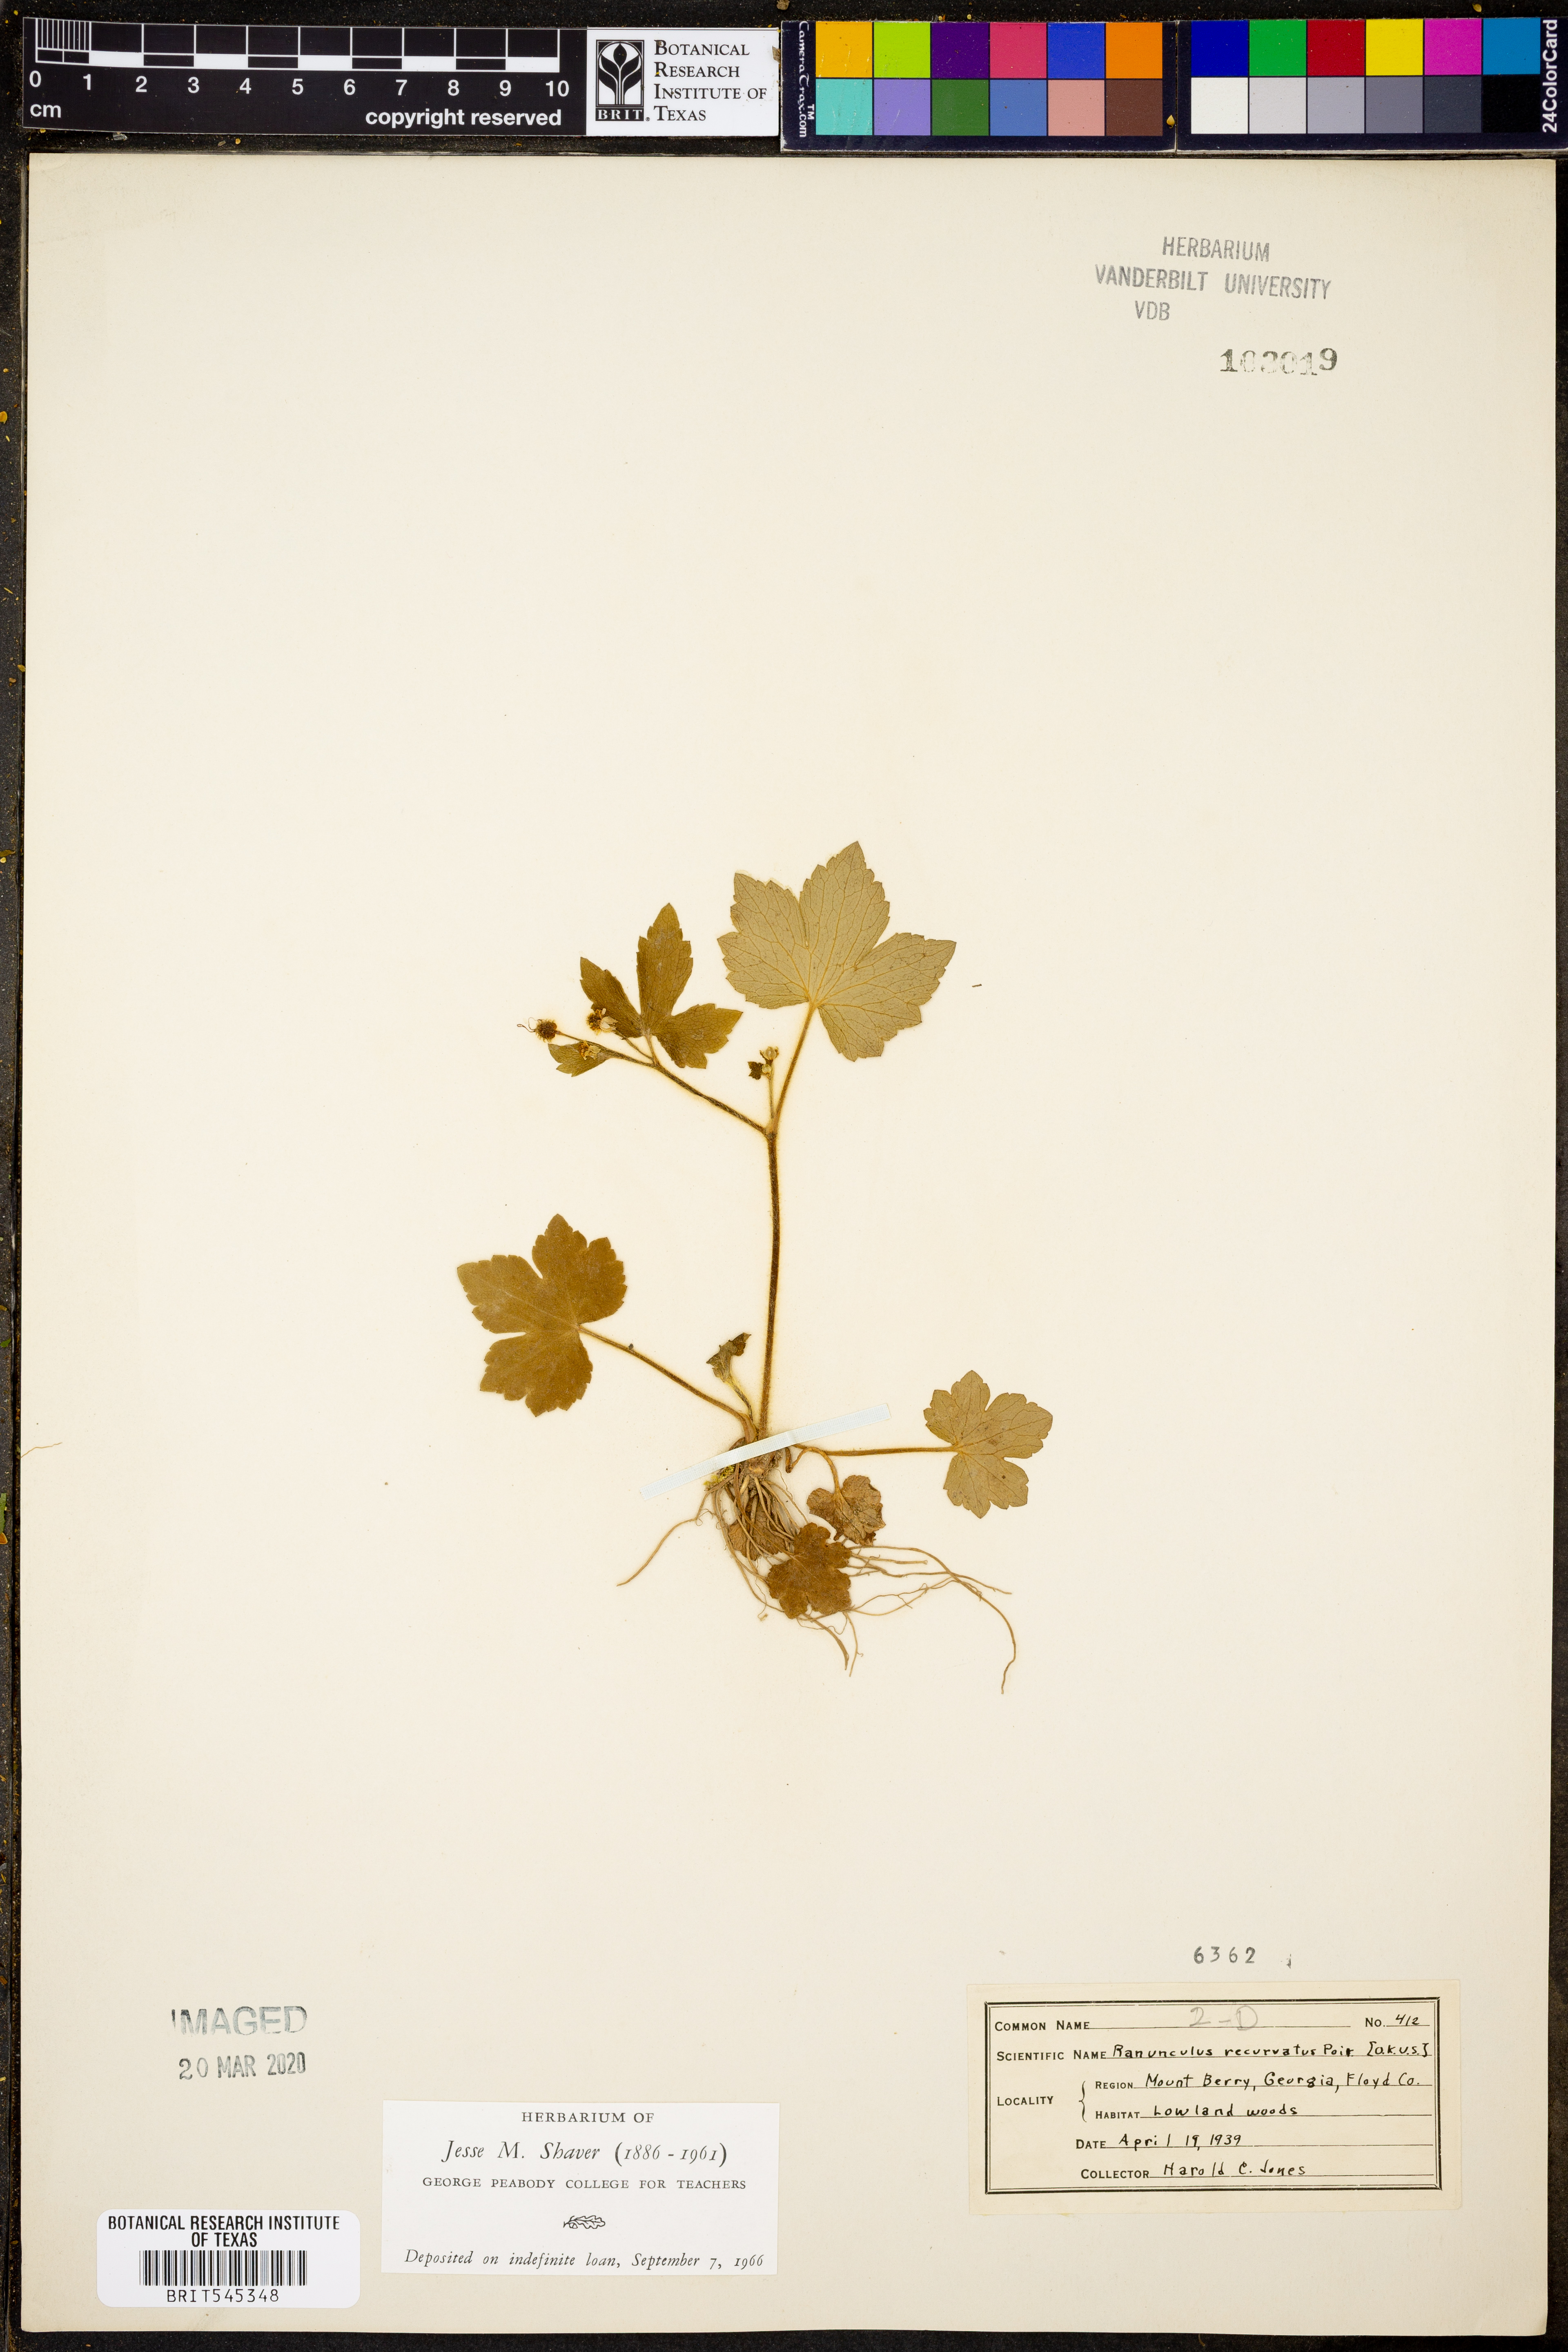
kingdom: Plantae
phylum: Tracheophyta
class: Magnoliopsida
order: Ranunculales
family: Ranunculaceae
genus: Ranunculus
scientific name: Ranunculus recurvatus
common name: Blisterwort
